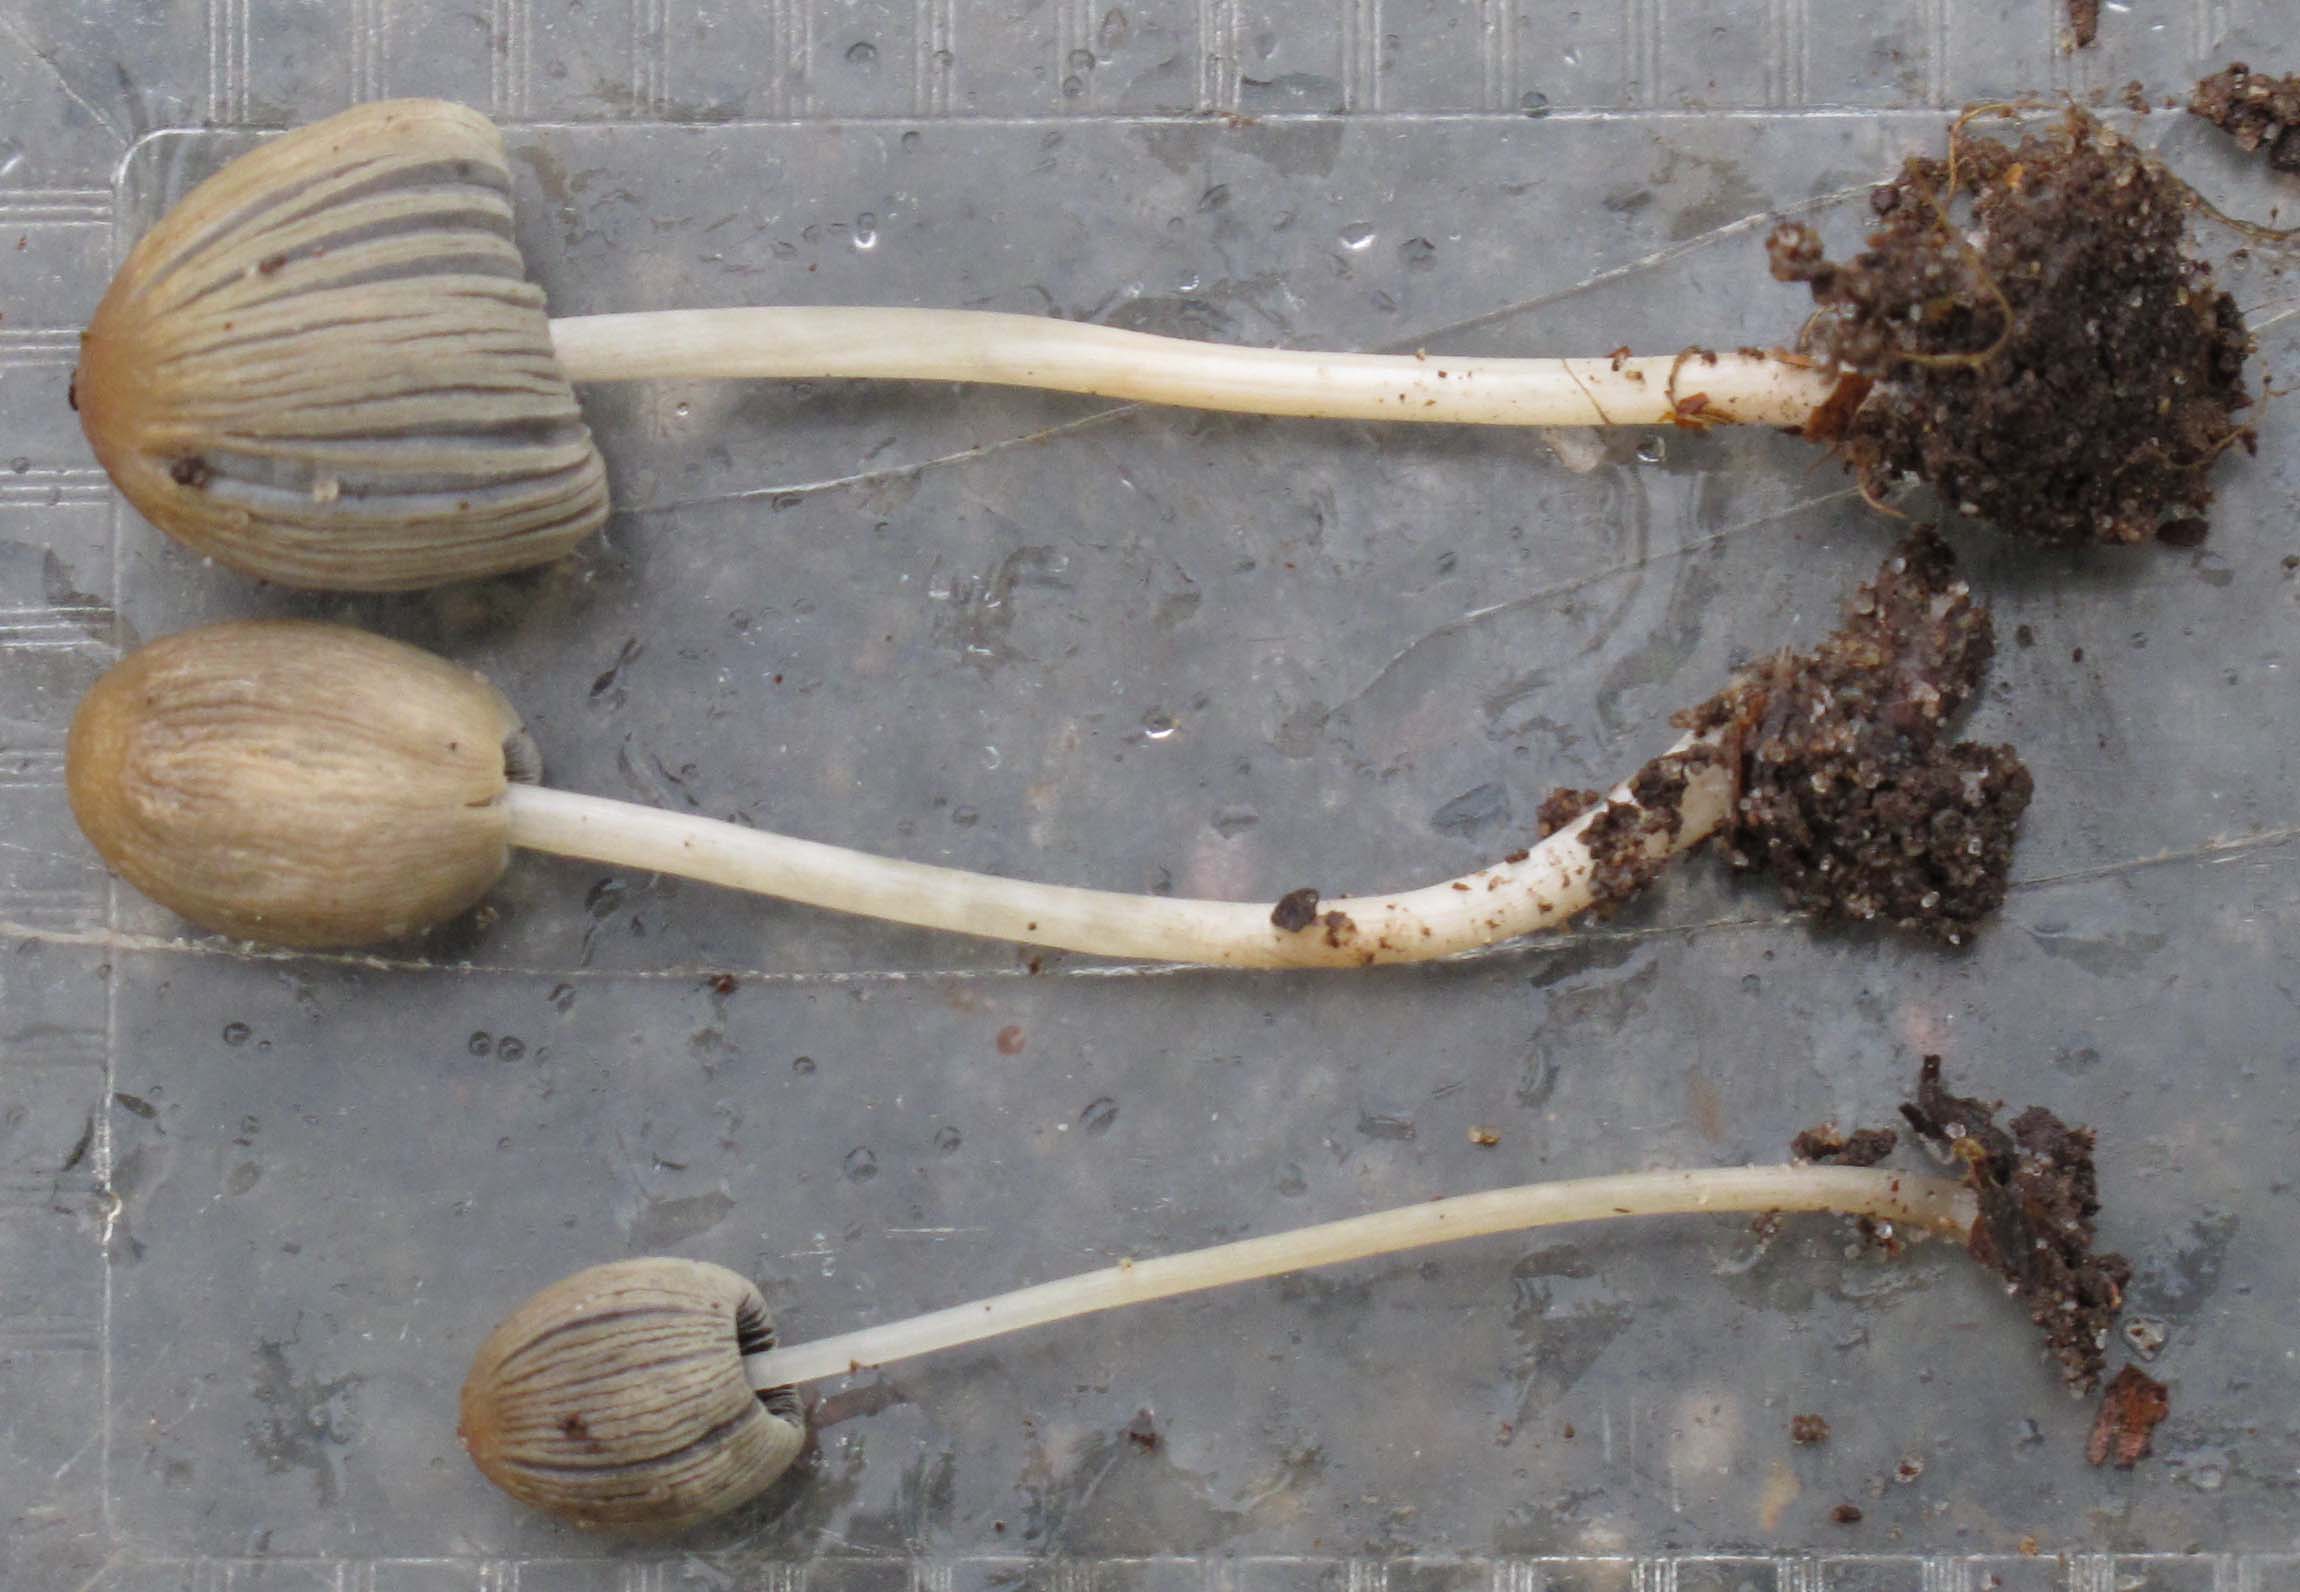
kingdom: Fungi
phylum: Basidiomycota
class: Agaricomycetes
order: Agaricales
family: Psathyrellaceae
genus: Parasola
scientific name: Parasola lactea
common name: glat hjulhat
